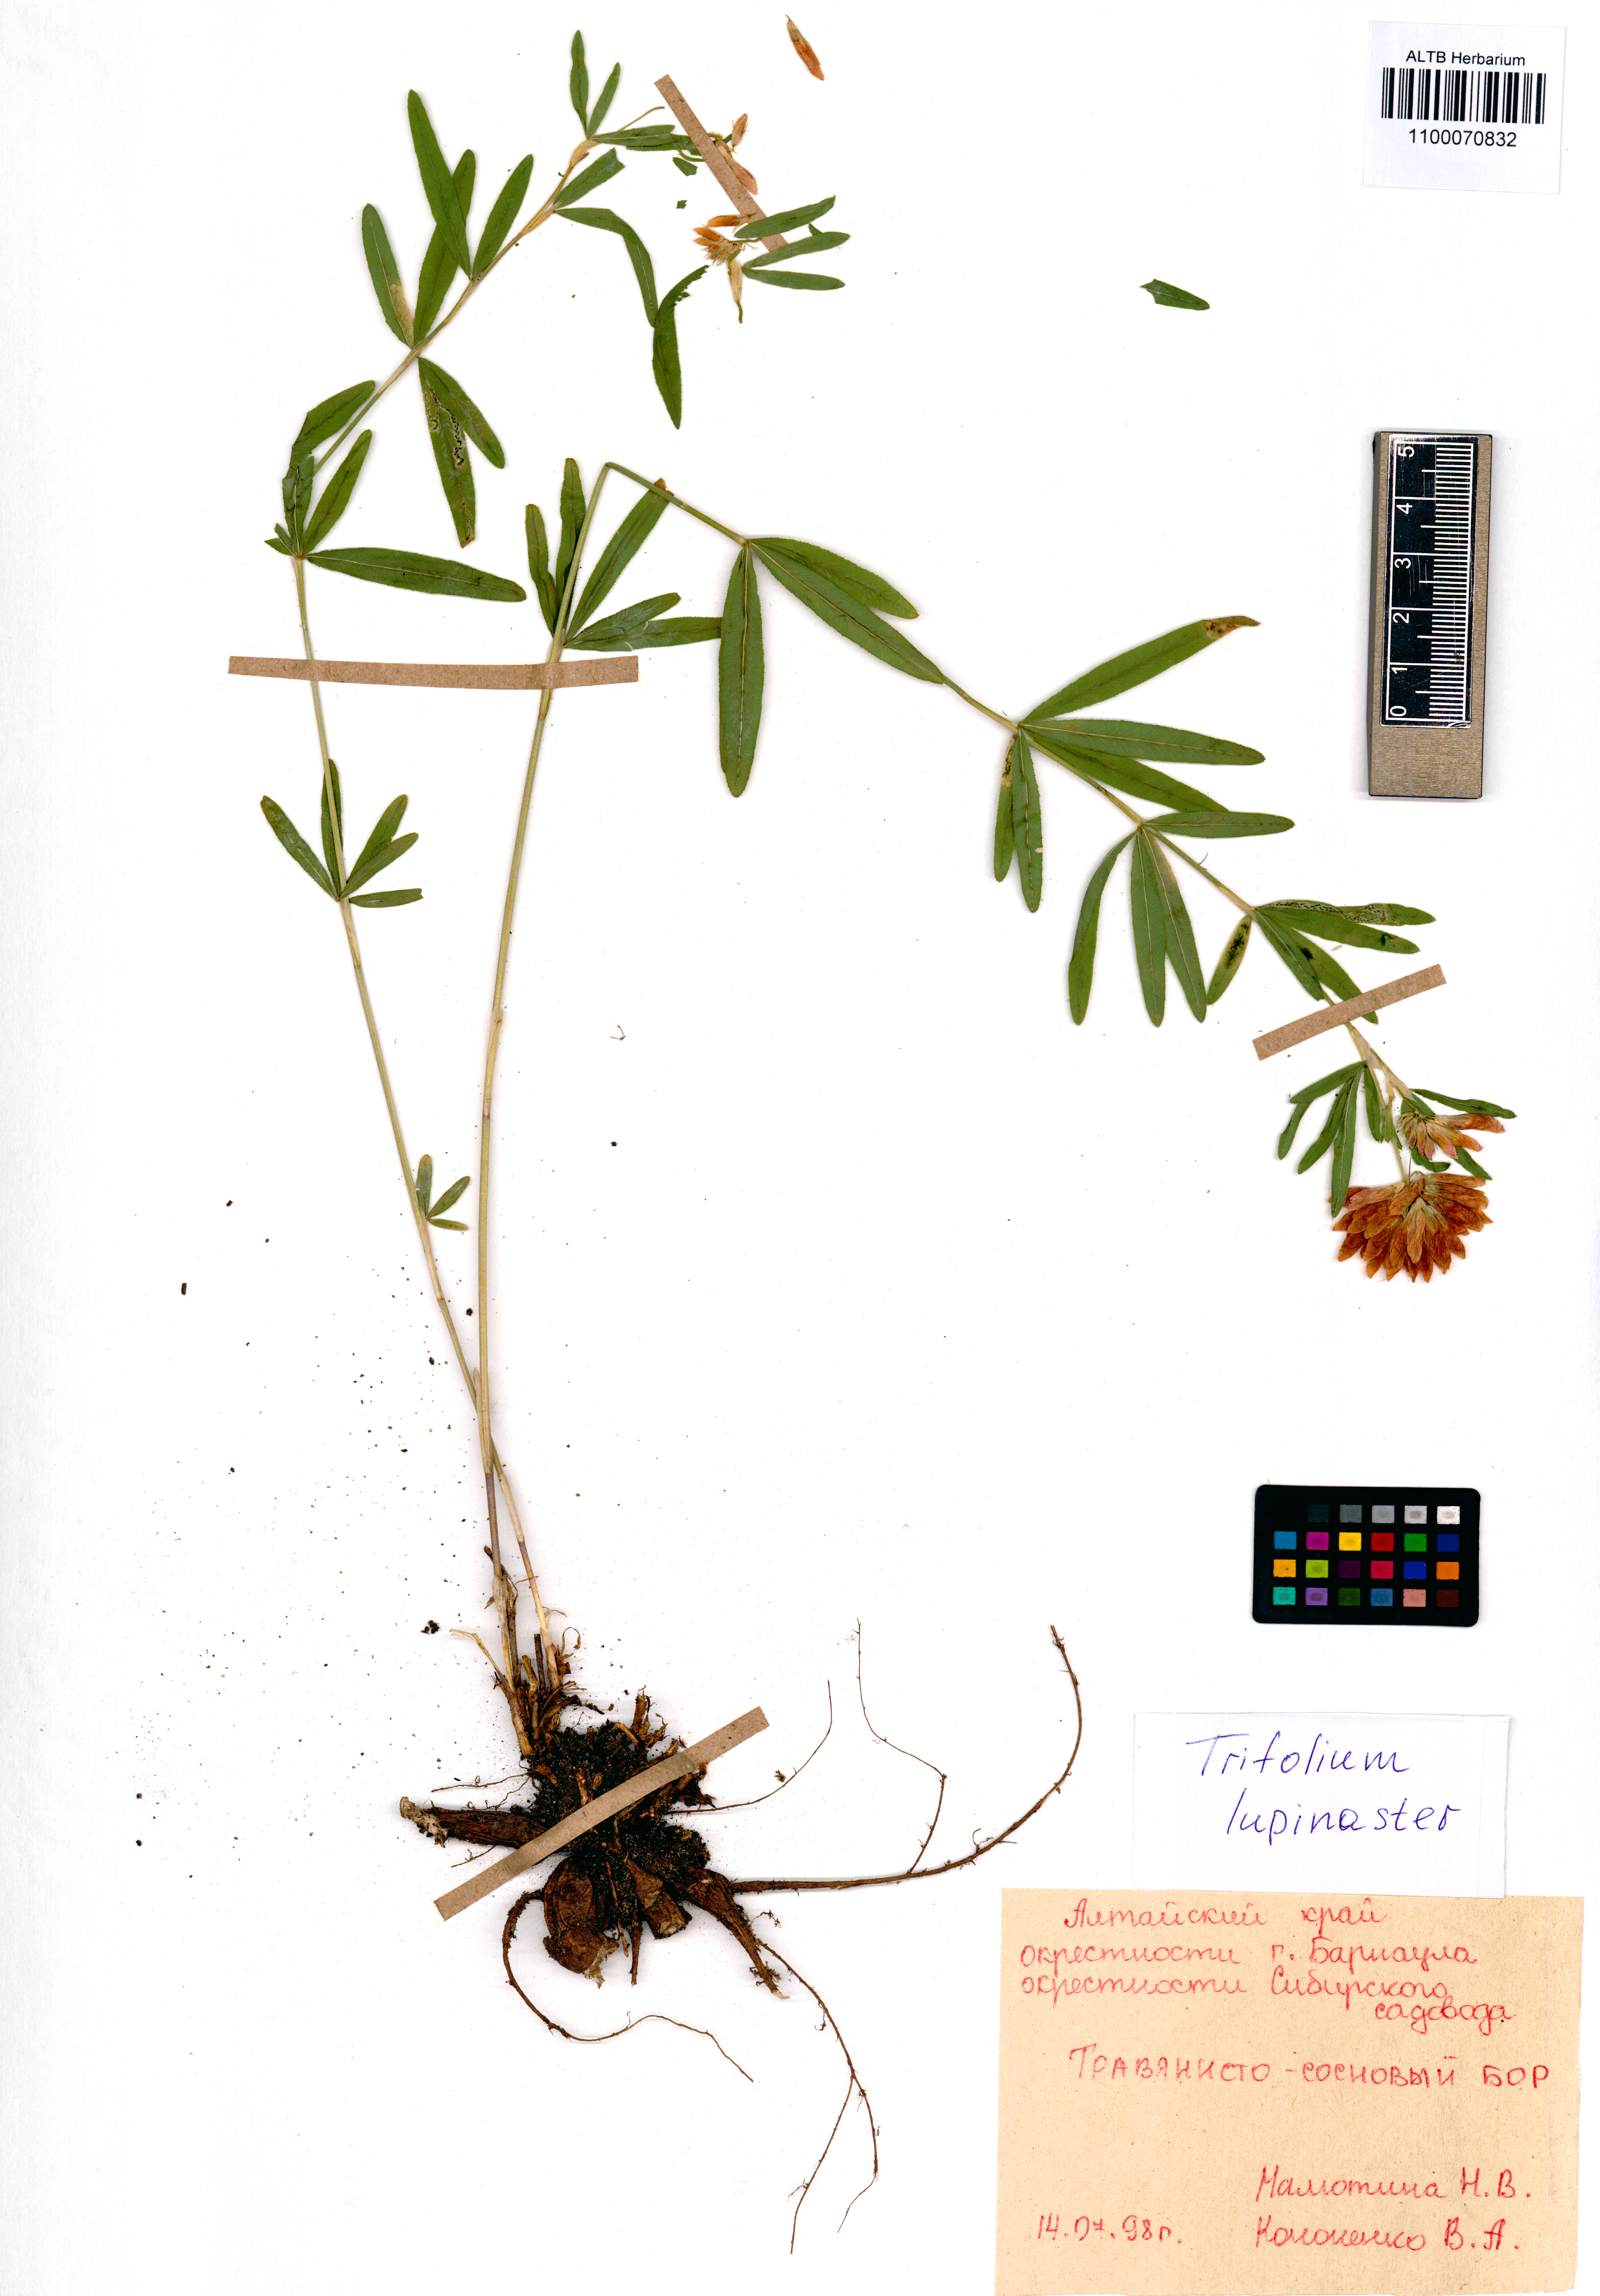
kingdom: Plantae
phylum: Tracheophyta
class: Magnoliopsida
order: Fabales
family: Fabaceae
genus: Trifolium
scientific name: Trifolium lupinaster
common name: Lupine clover
